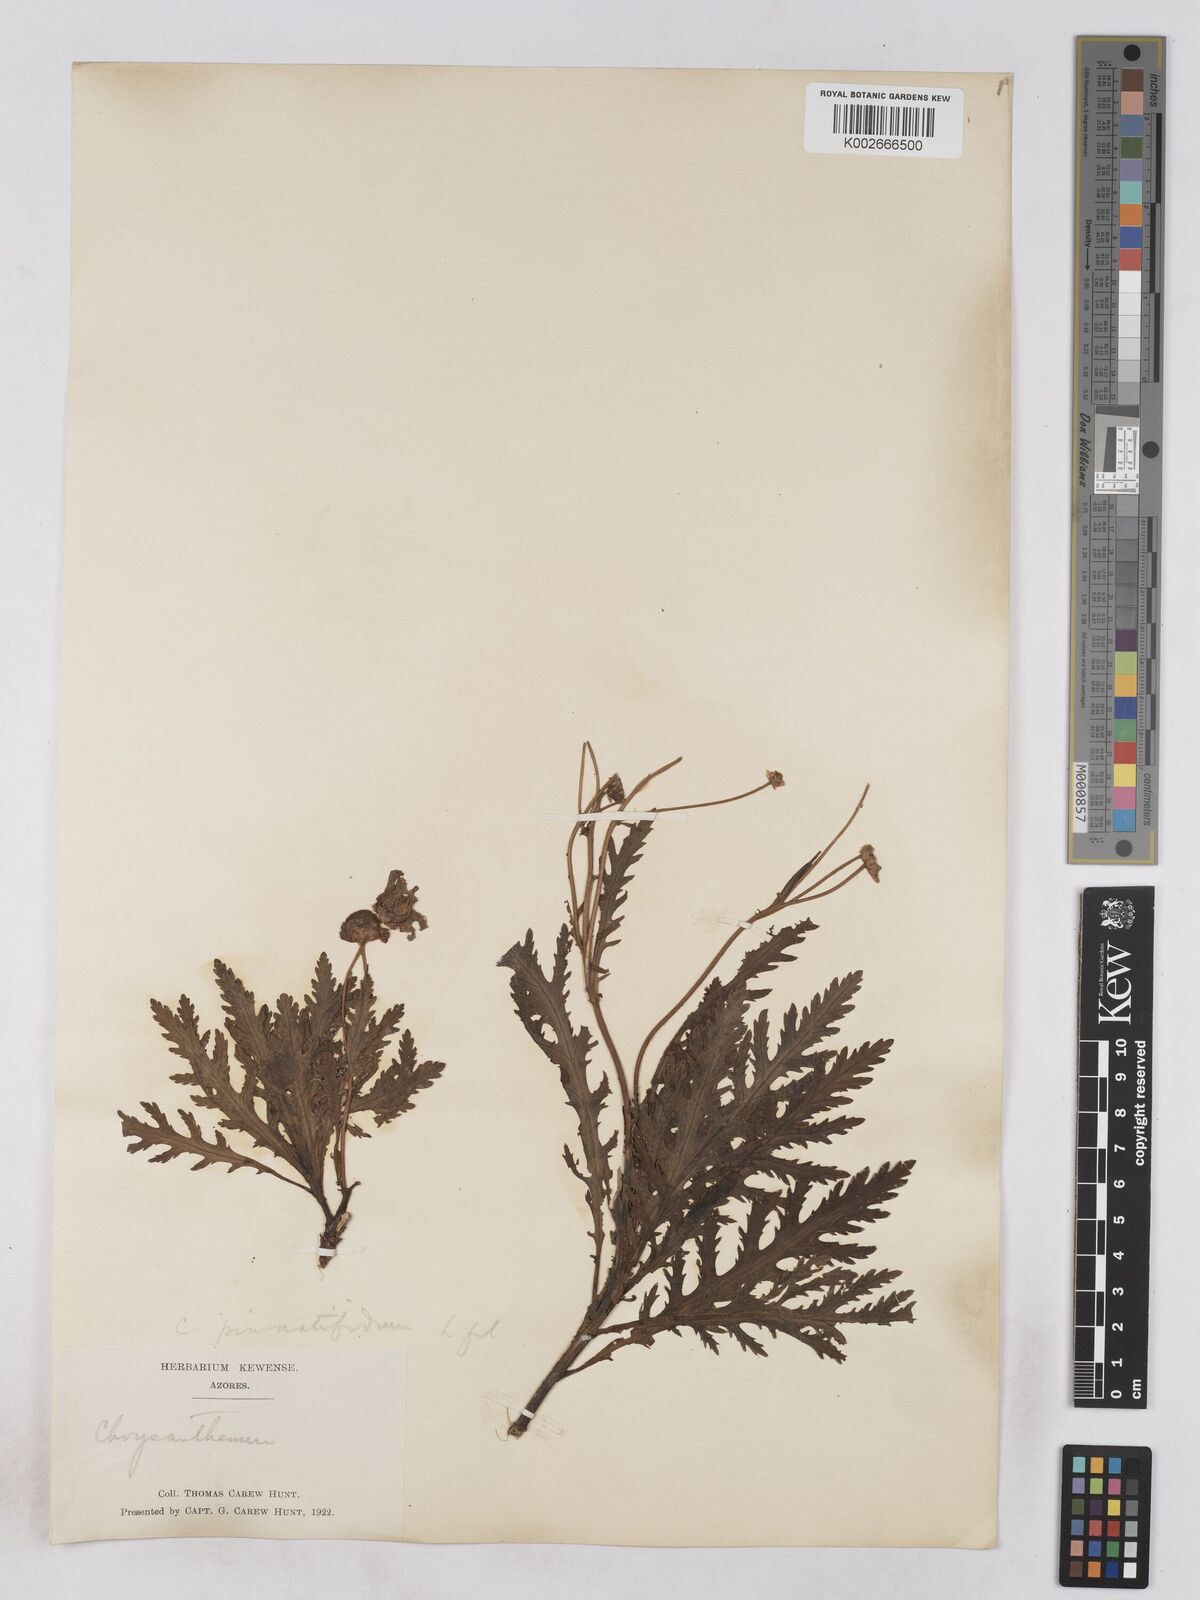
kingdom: Plantae
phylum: Tracheophyta
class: Magnoliopsida
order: Asterales
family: Asteraceae
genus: Argyranthemum
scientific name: Argyranthemum pinnatifidum
